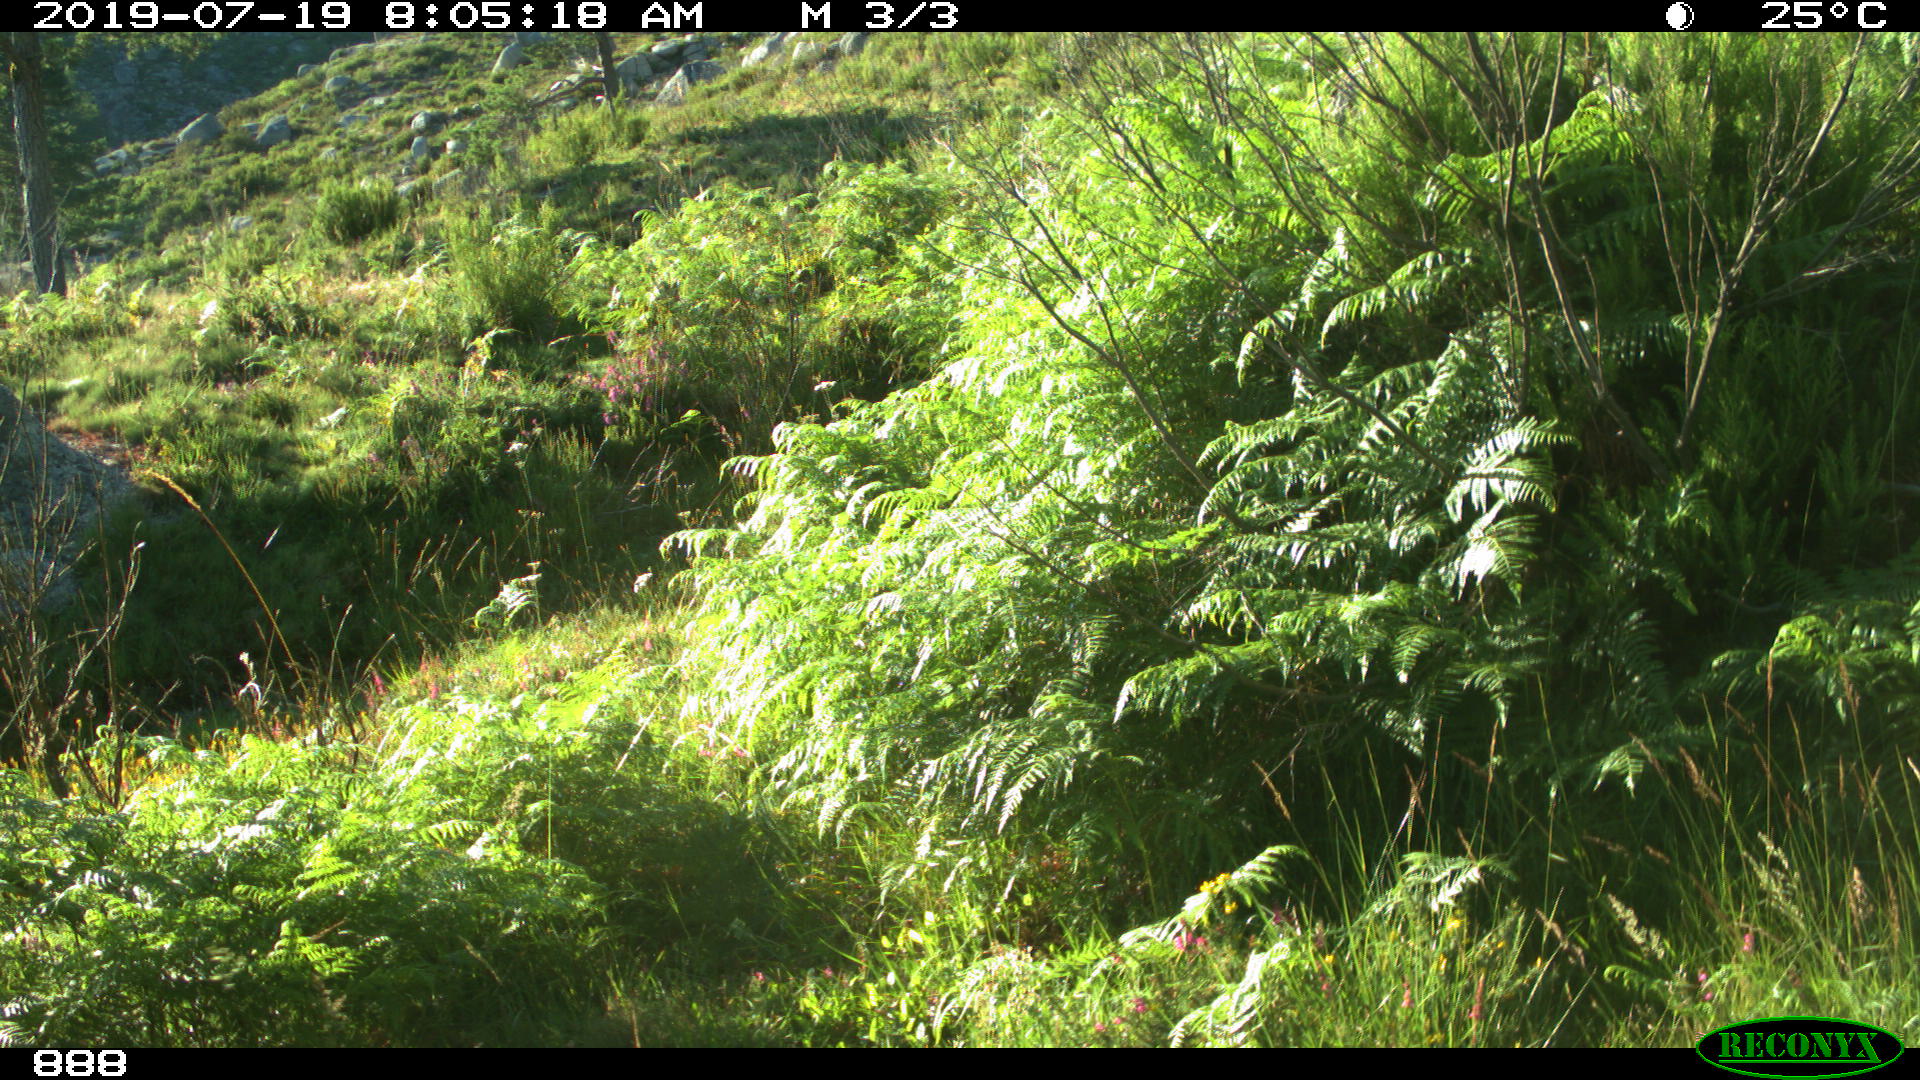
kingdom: Animalia
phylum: Chordata
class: Mammalia
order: Artiodactyla
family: Cervidae
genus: Capreolus
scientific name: Capreolus capreolus
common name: Western roe deer
